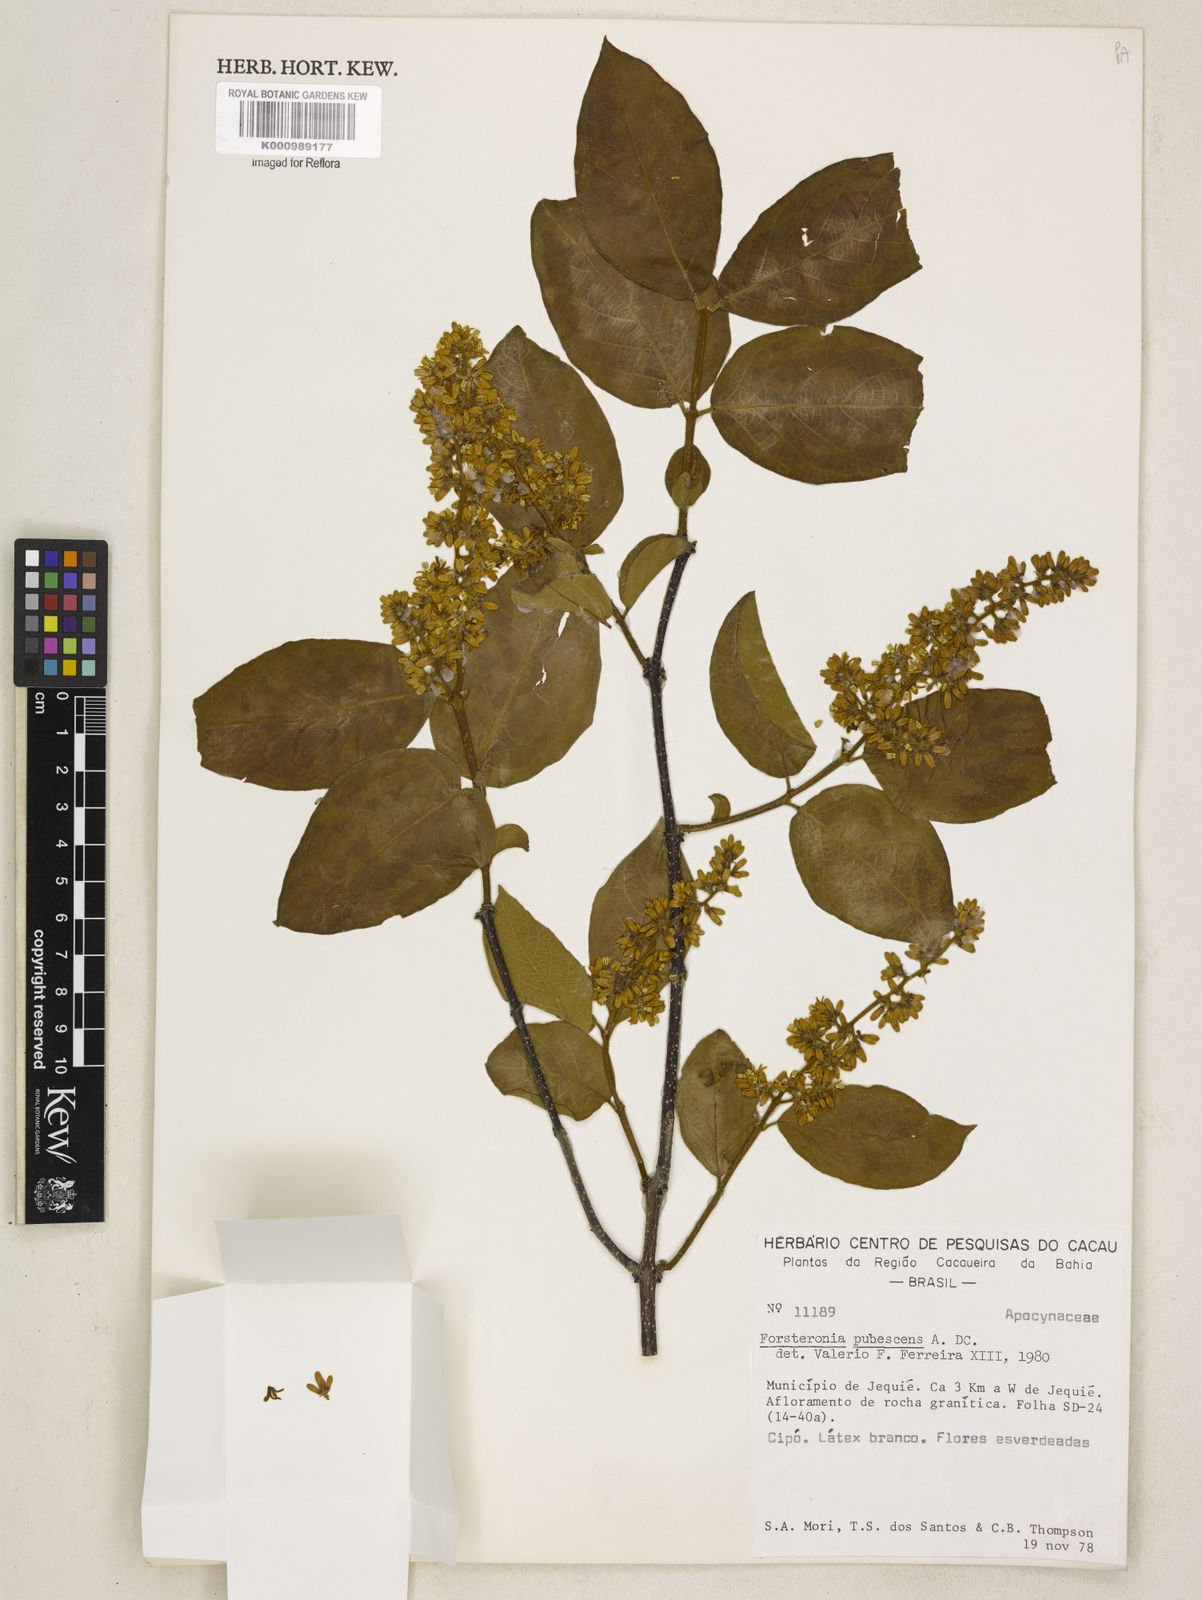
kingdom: Plantae
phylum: Tracheophyta
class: Magnoliopsida
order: Gentianales
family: Apocynaceae
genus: Forsteronia
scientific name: Forsteronia
